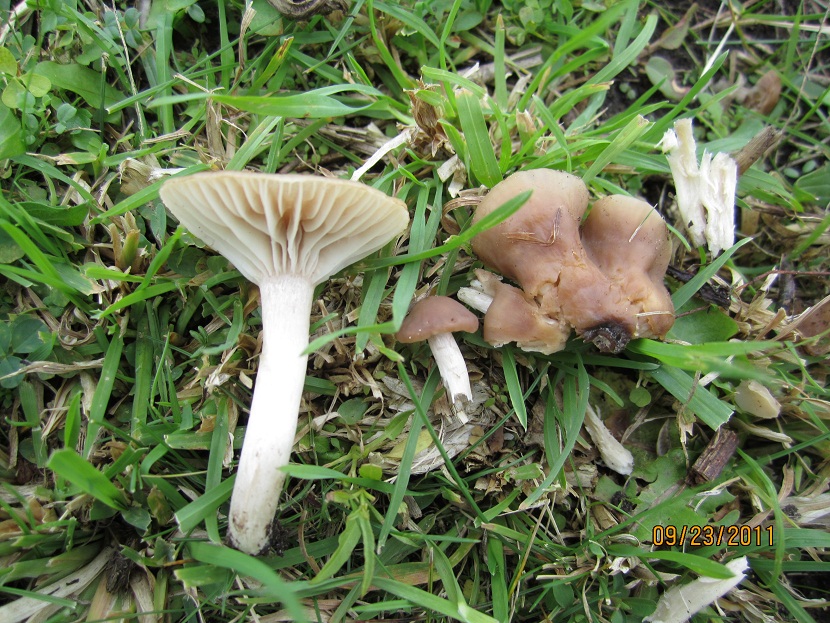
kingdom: Fungi
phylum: Basidiomycota
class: Agaricomycetes
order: Agaricales
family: Hygrophoraceae
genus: Cuphophyllus
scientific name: Cuphophyllus colemannianus
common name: rødbrun vokshat
